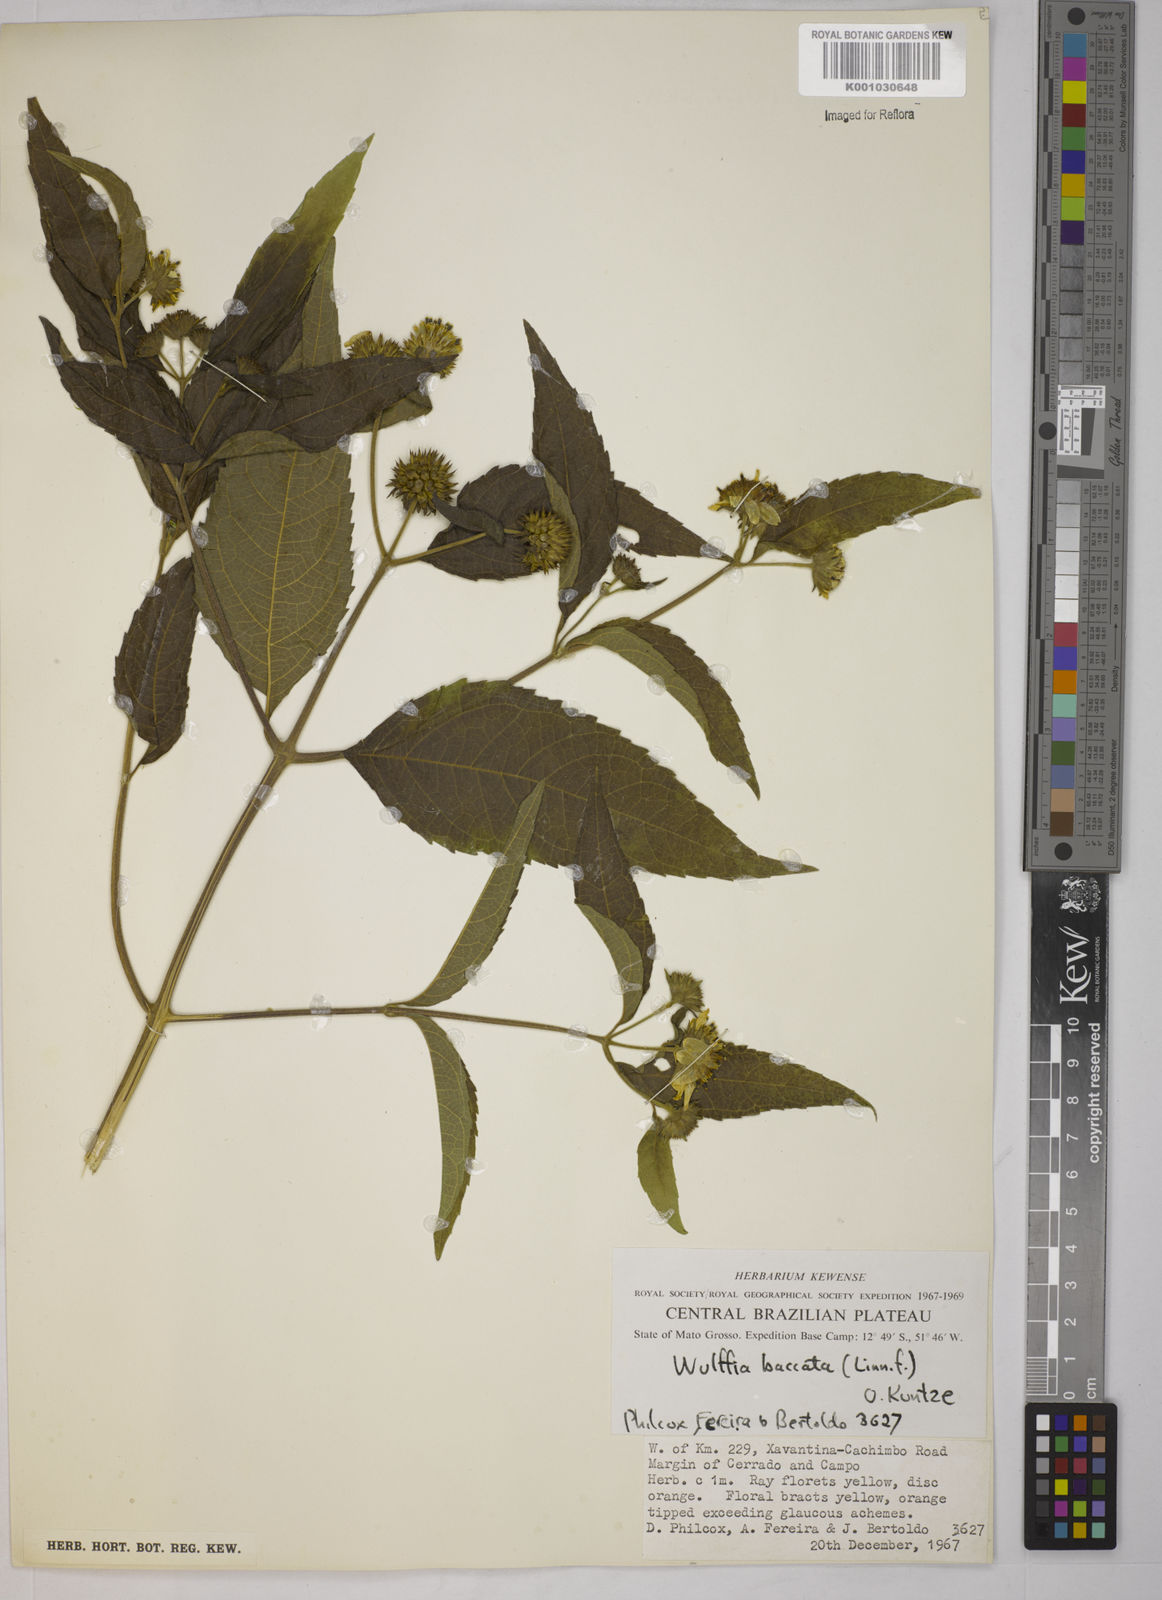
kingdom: Plantae
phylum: Tracheophyta
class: Magnoliopsida
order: Asterales
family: Asteraceae
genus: Tilesia
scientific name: Tilesia baccata
